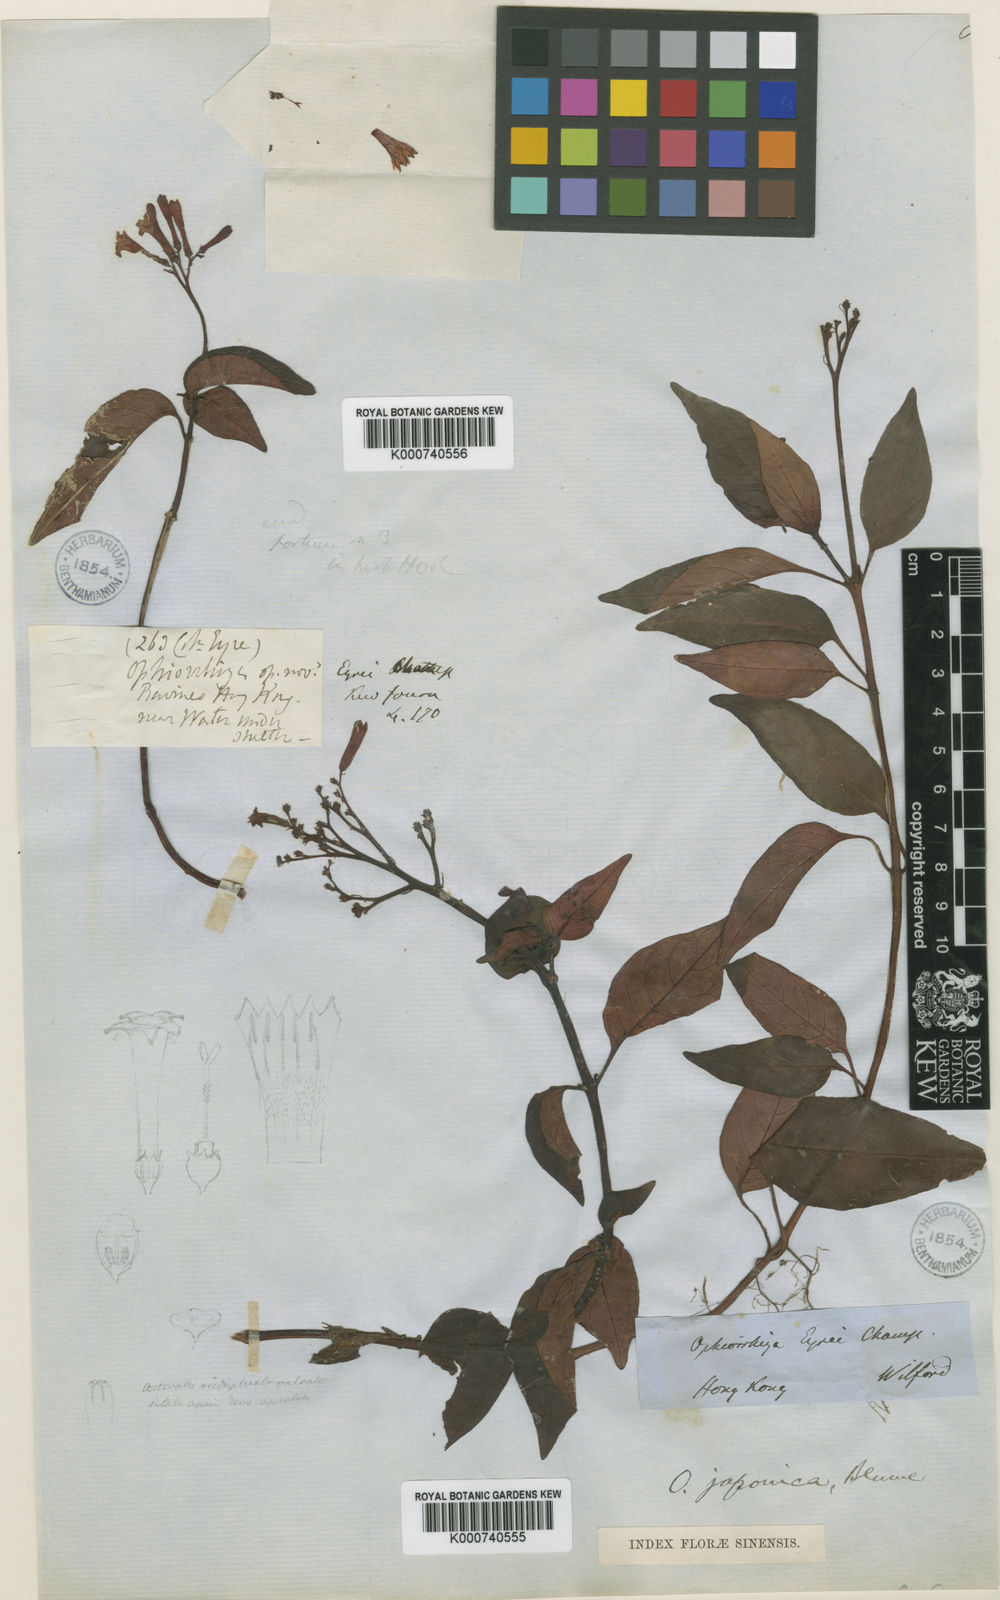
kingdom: Plantae
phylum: Tracheophyta
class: Magnoliopsida
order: Gentianales
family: Rubiaceae
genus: Ophiorrhiza
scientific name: Ophiorrhiza japonica
